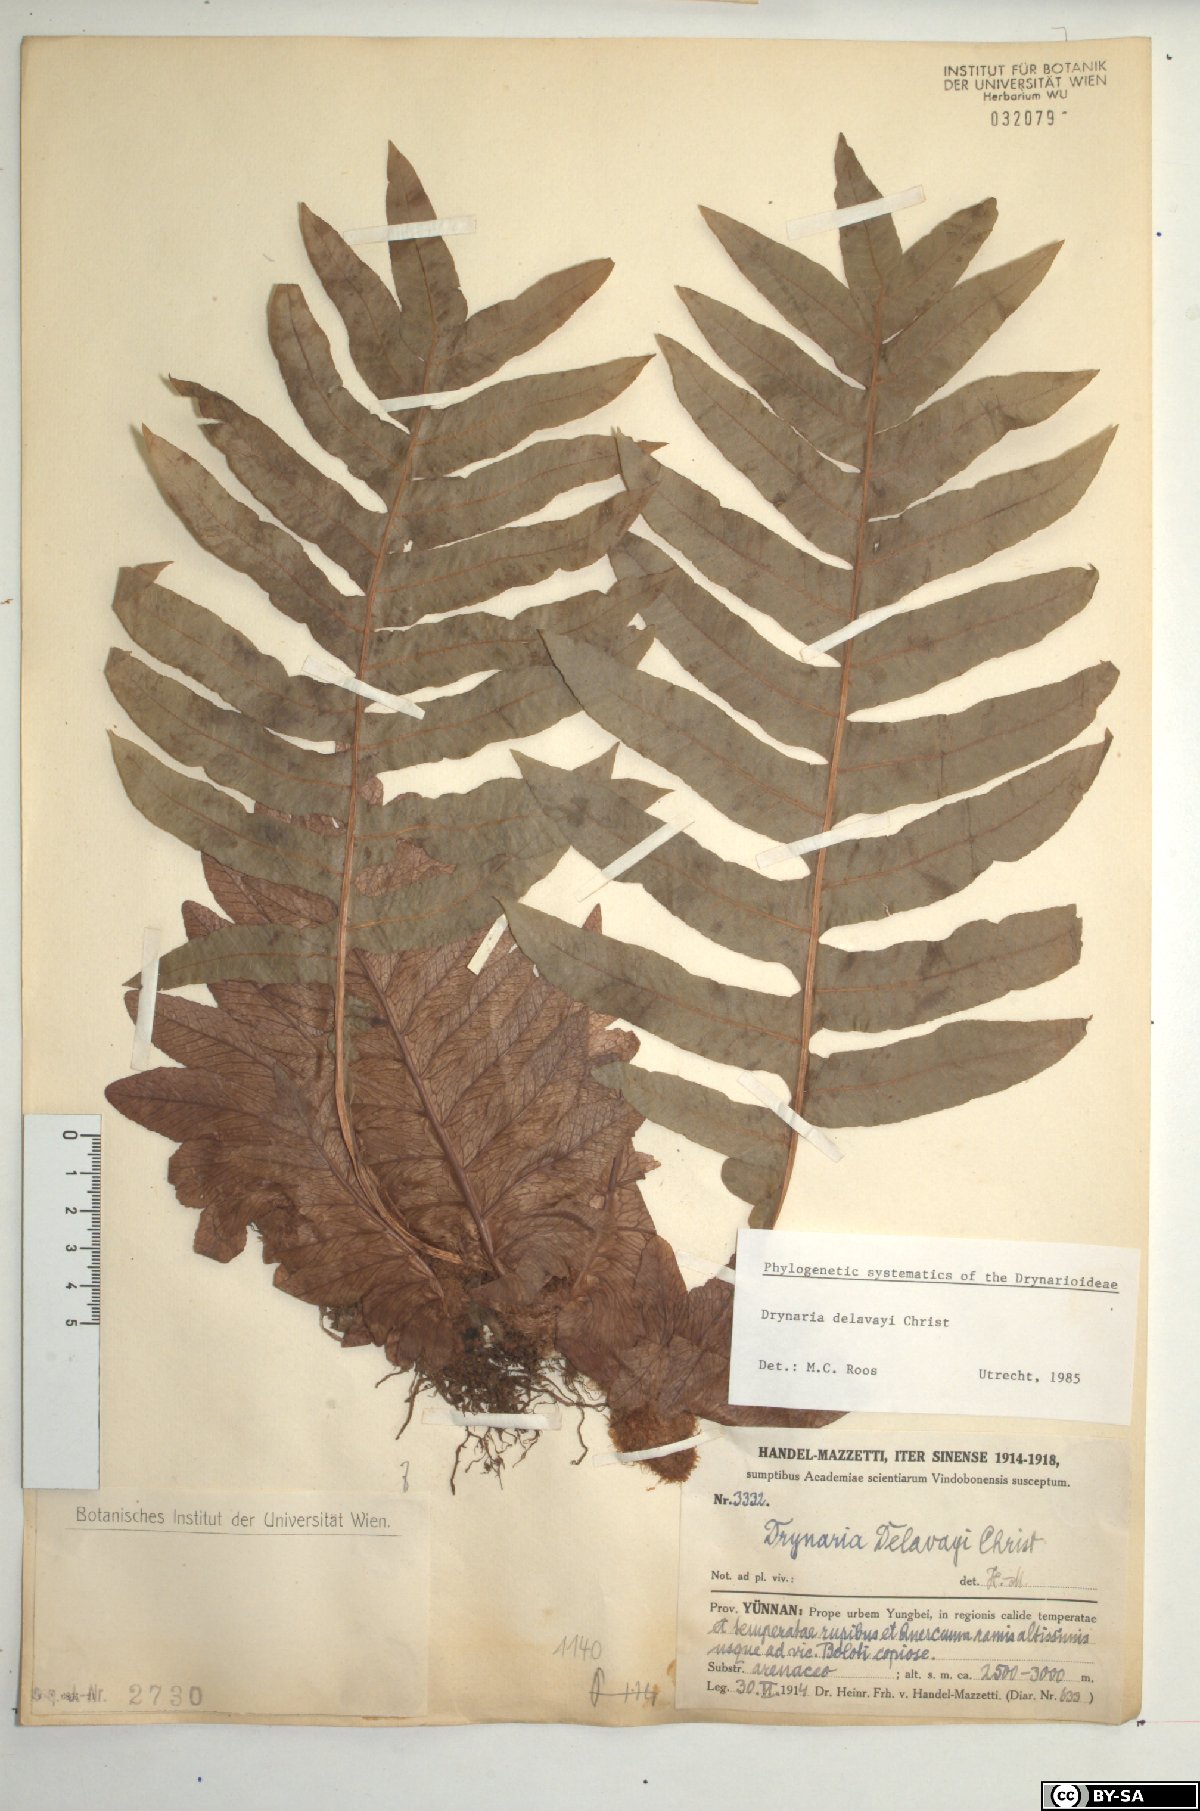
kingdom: Plantae
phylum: Tracheophyta
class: Polypodiopsida
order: Polypodiales
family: Polypodiaceae
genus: Drynaria
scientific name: Drynaria delavayi
